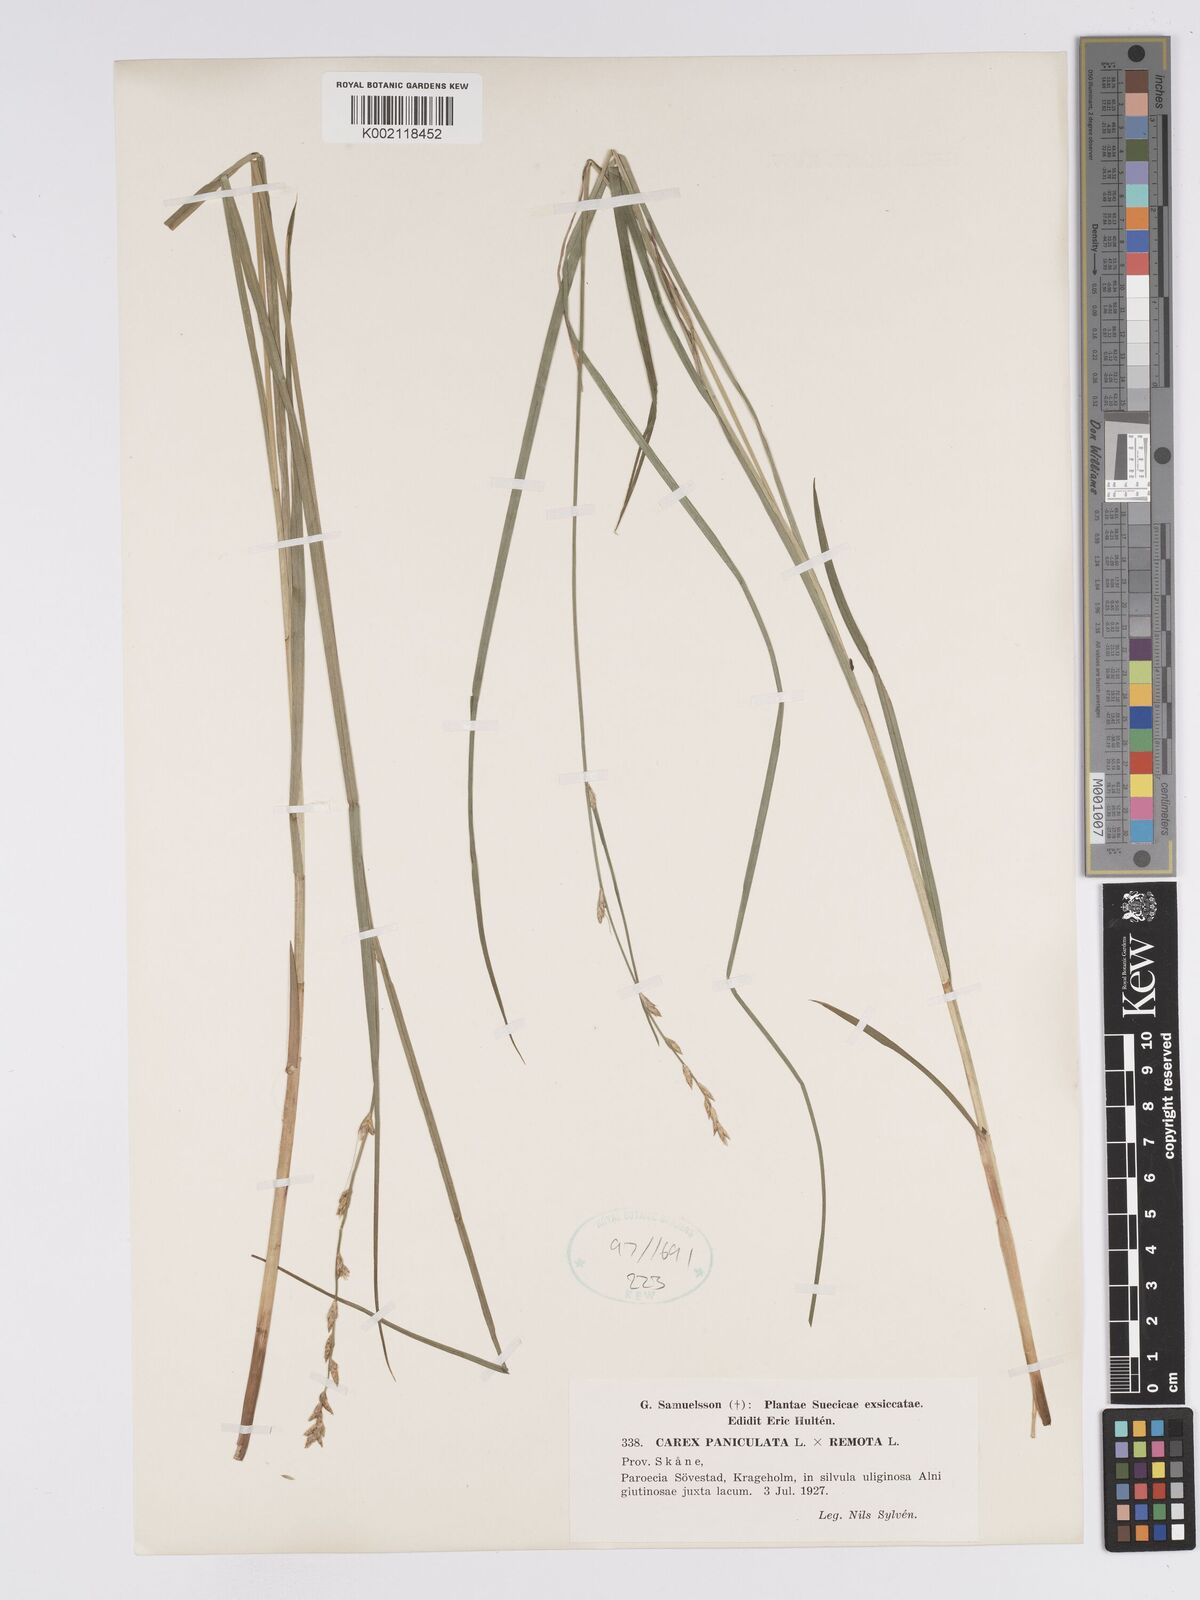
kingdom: Plantae
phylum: Tracheophyta
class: Liliopsida
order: Poales
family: Cyperaceae
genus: Carex
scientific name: Carex boenninghausiana
